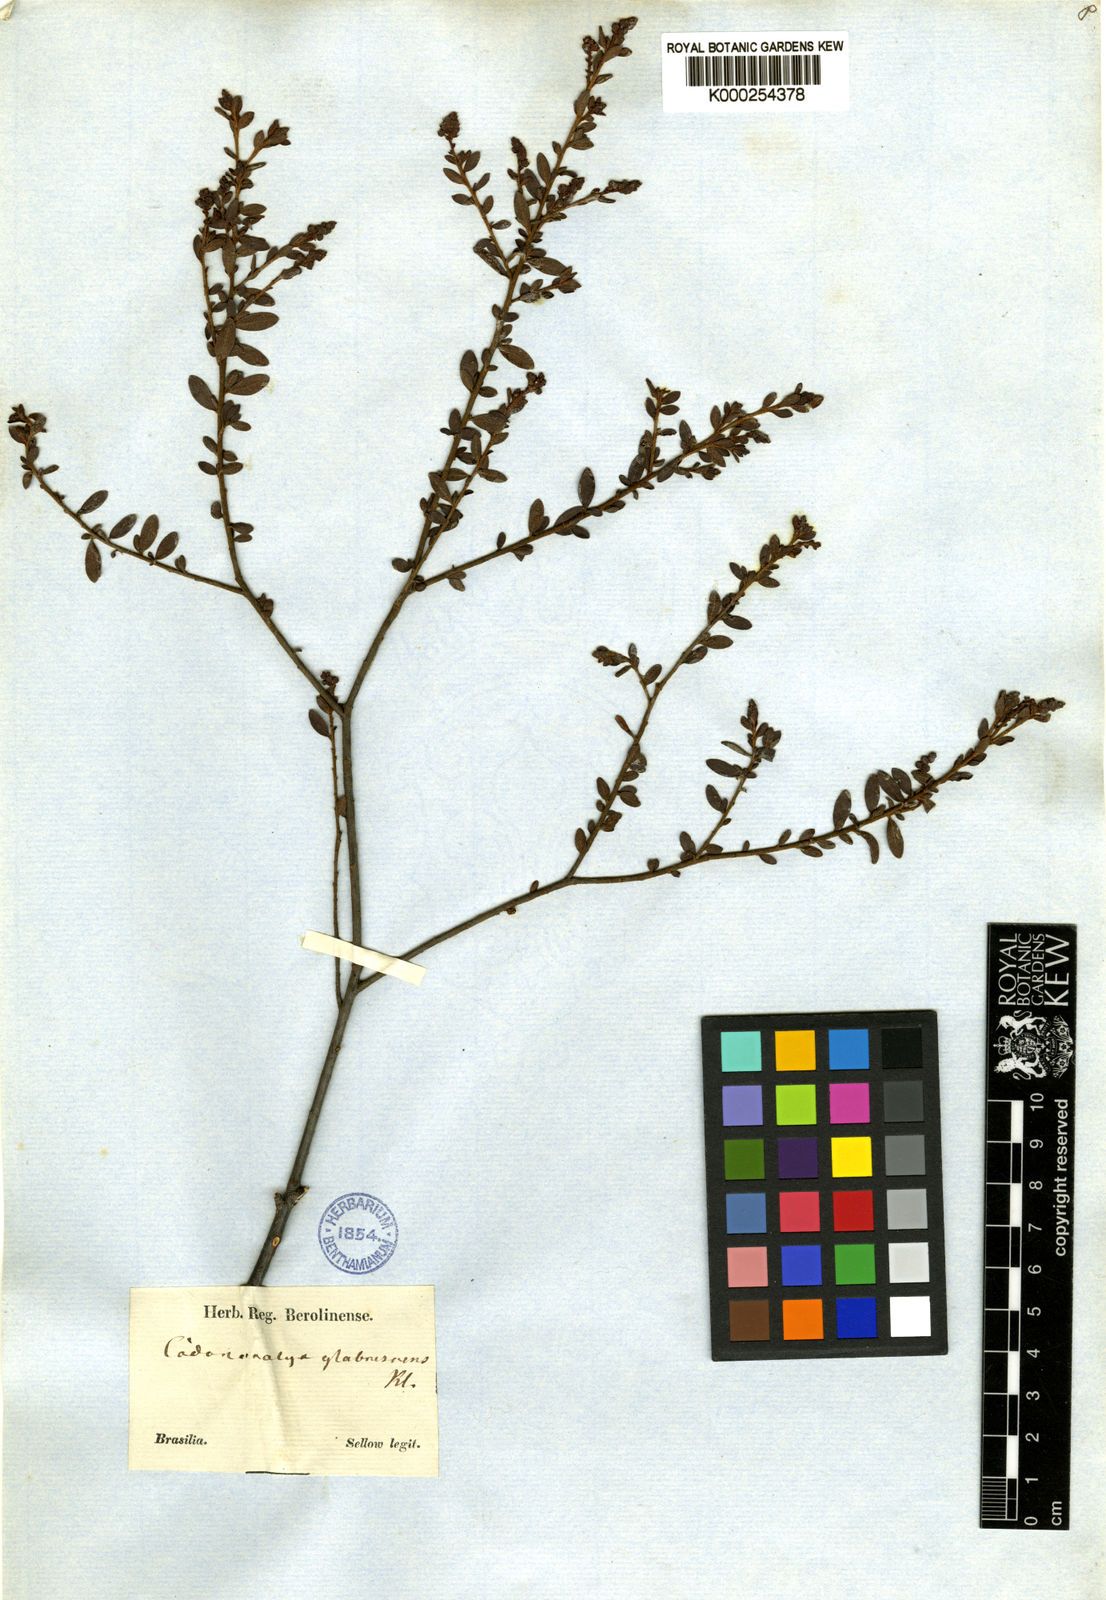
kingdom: Plantae
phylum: Tracheophyta
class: Magnoliopsida
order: Malpighiales
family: Euphorbiaceae
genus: Croton
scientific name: Croton nitrariifolius
